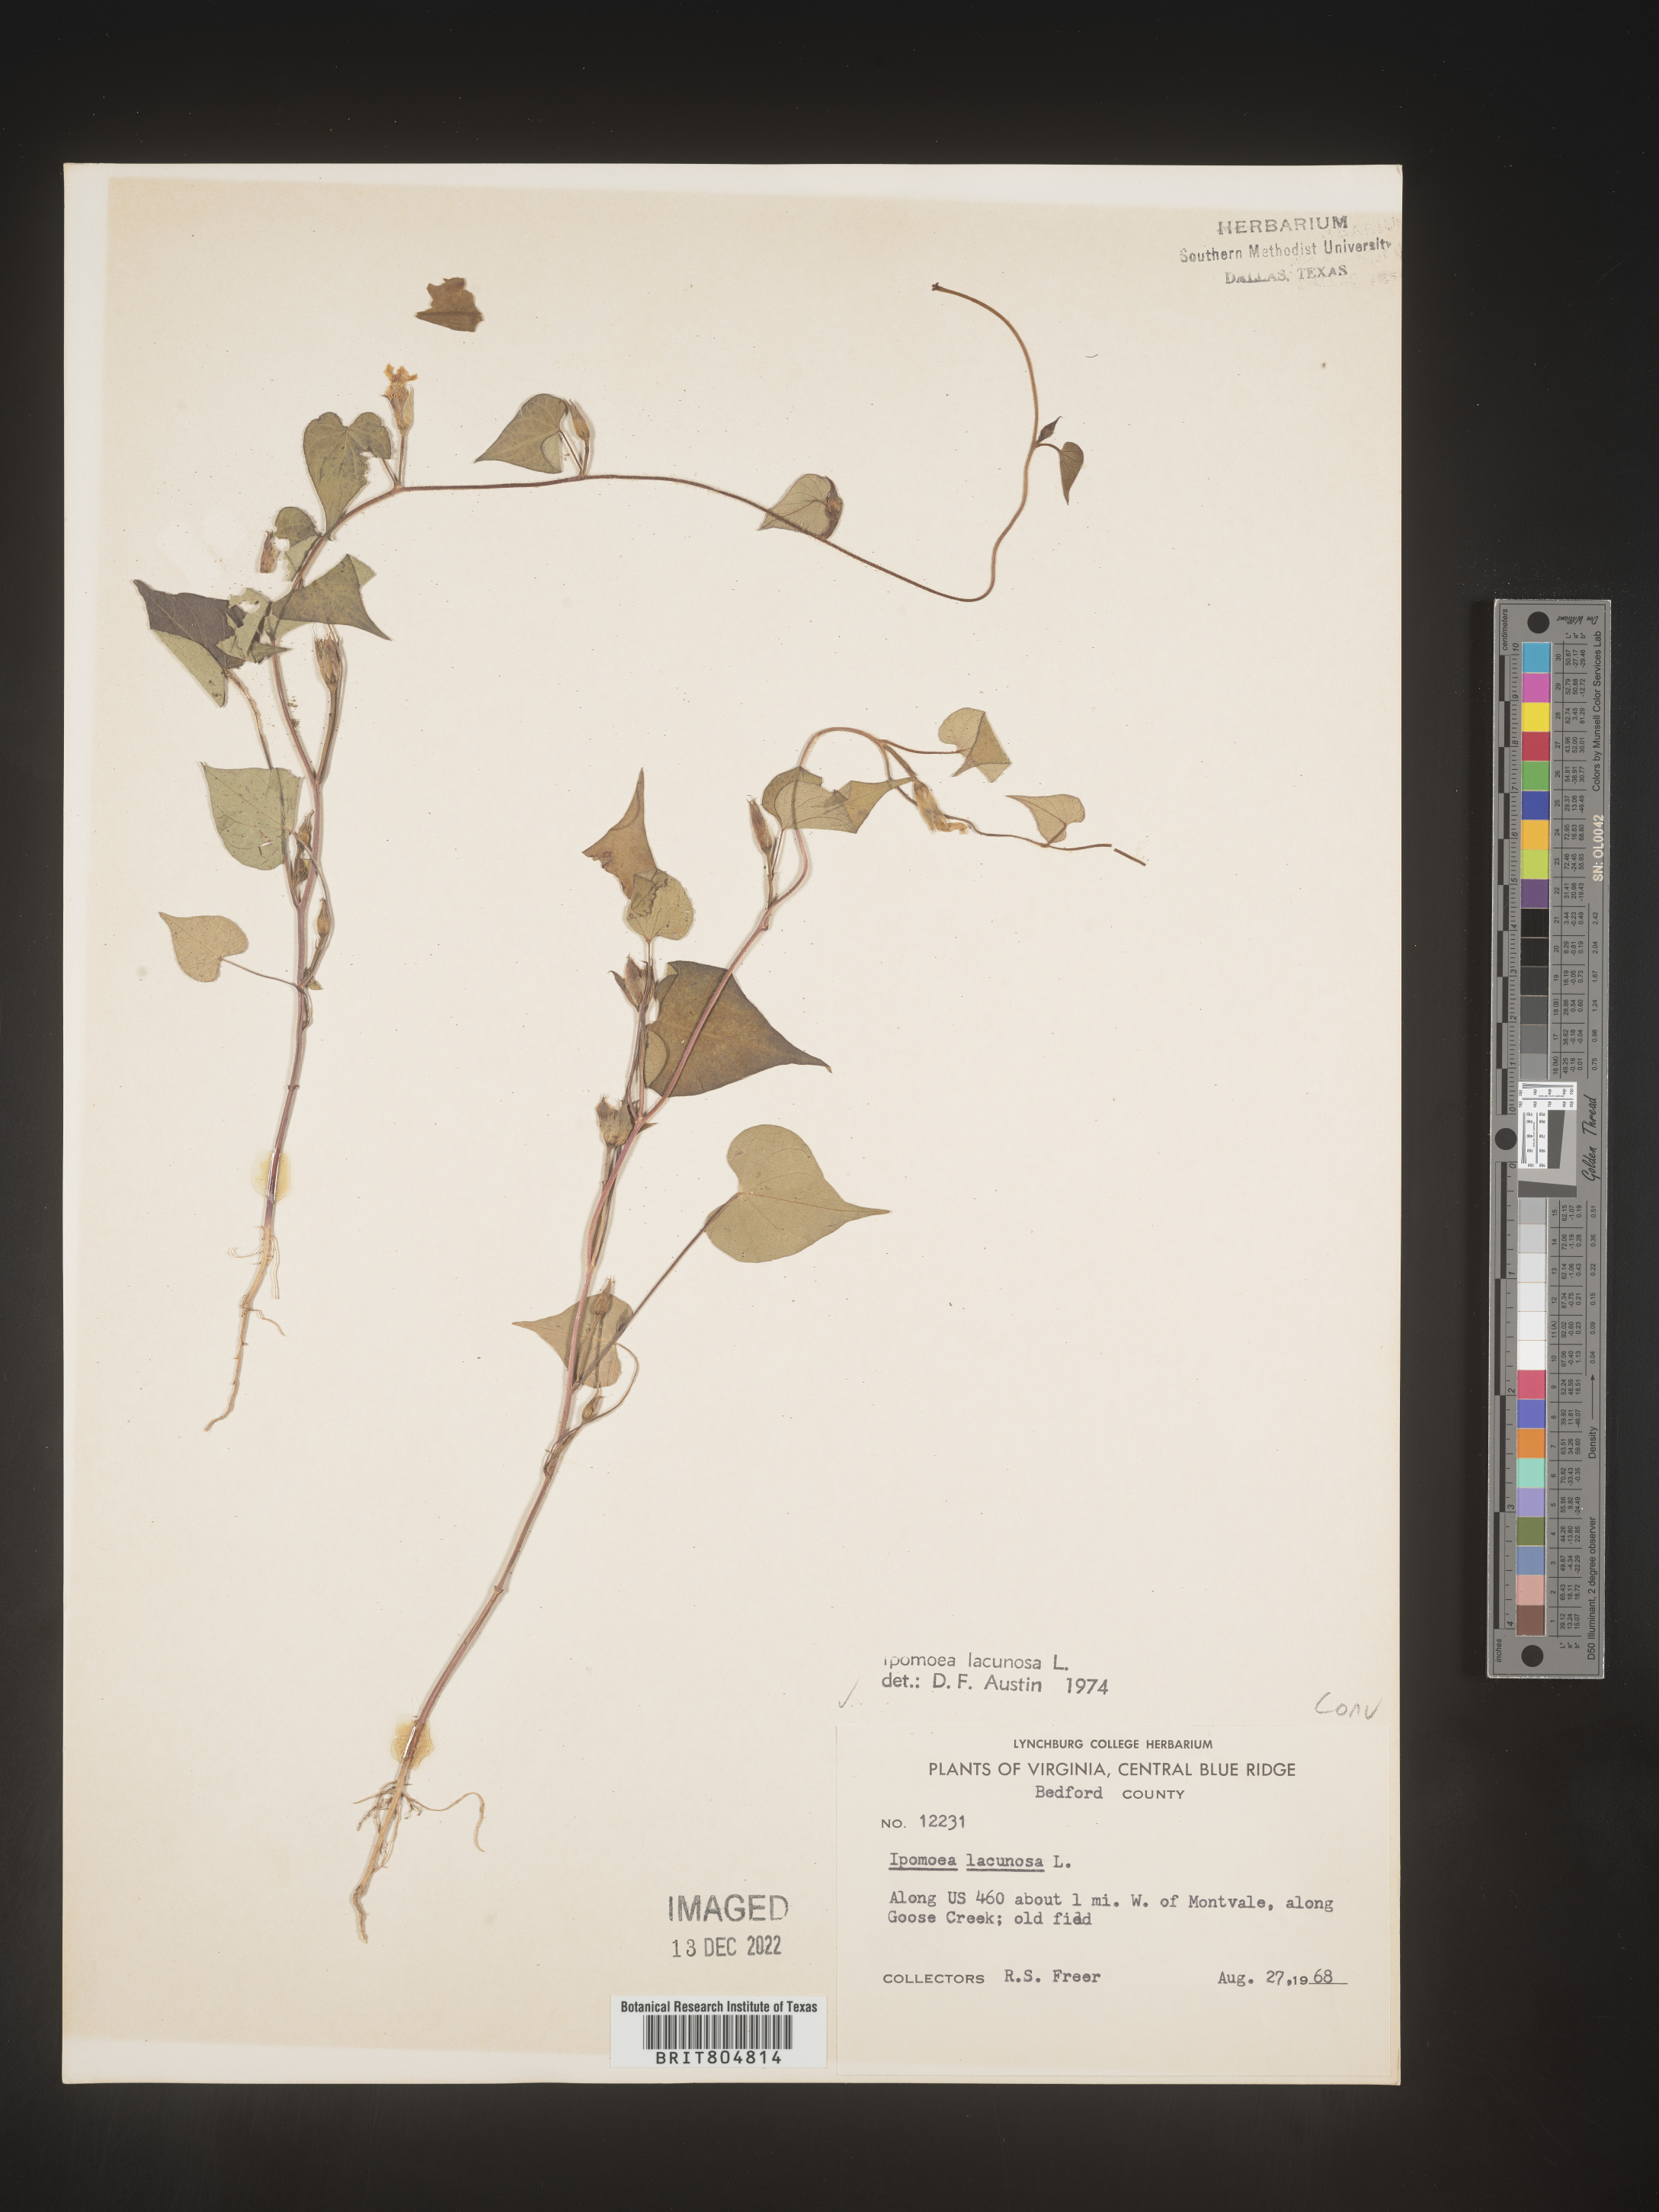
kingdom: Plantae
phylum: Tracheophyta
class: Magnoliopsida
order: Solanales
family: Convolvulaceae
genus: Ipomoea
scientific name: Ipomoea lacunosa
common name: White morning-glory
